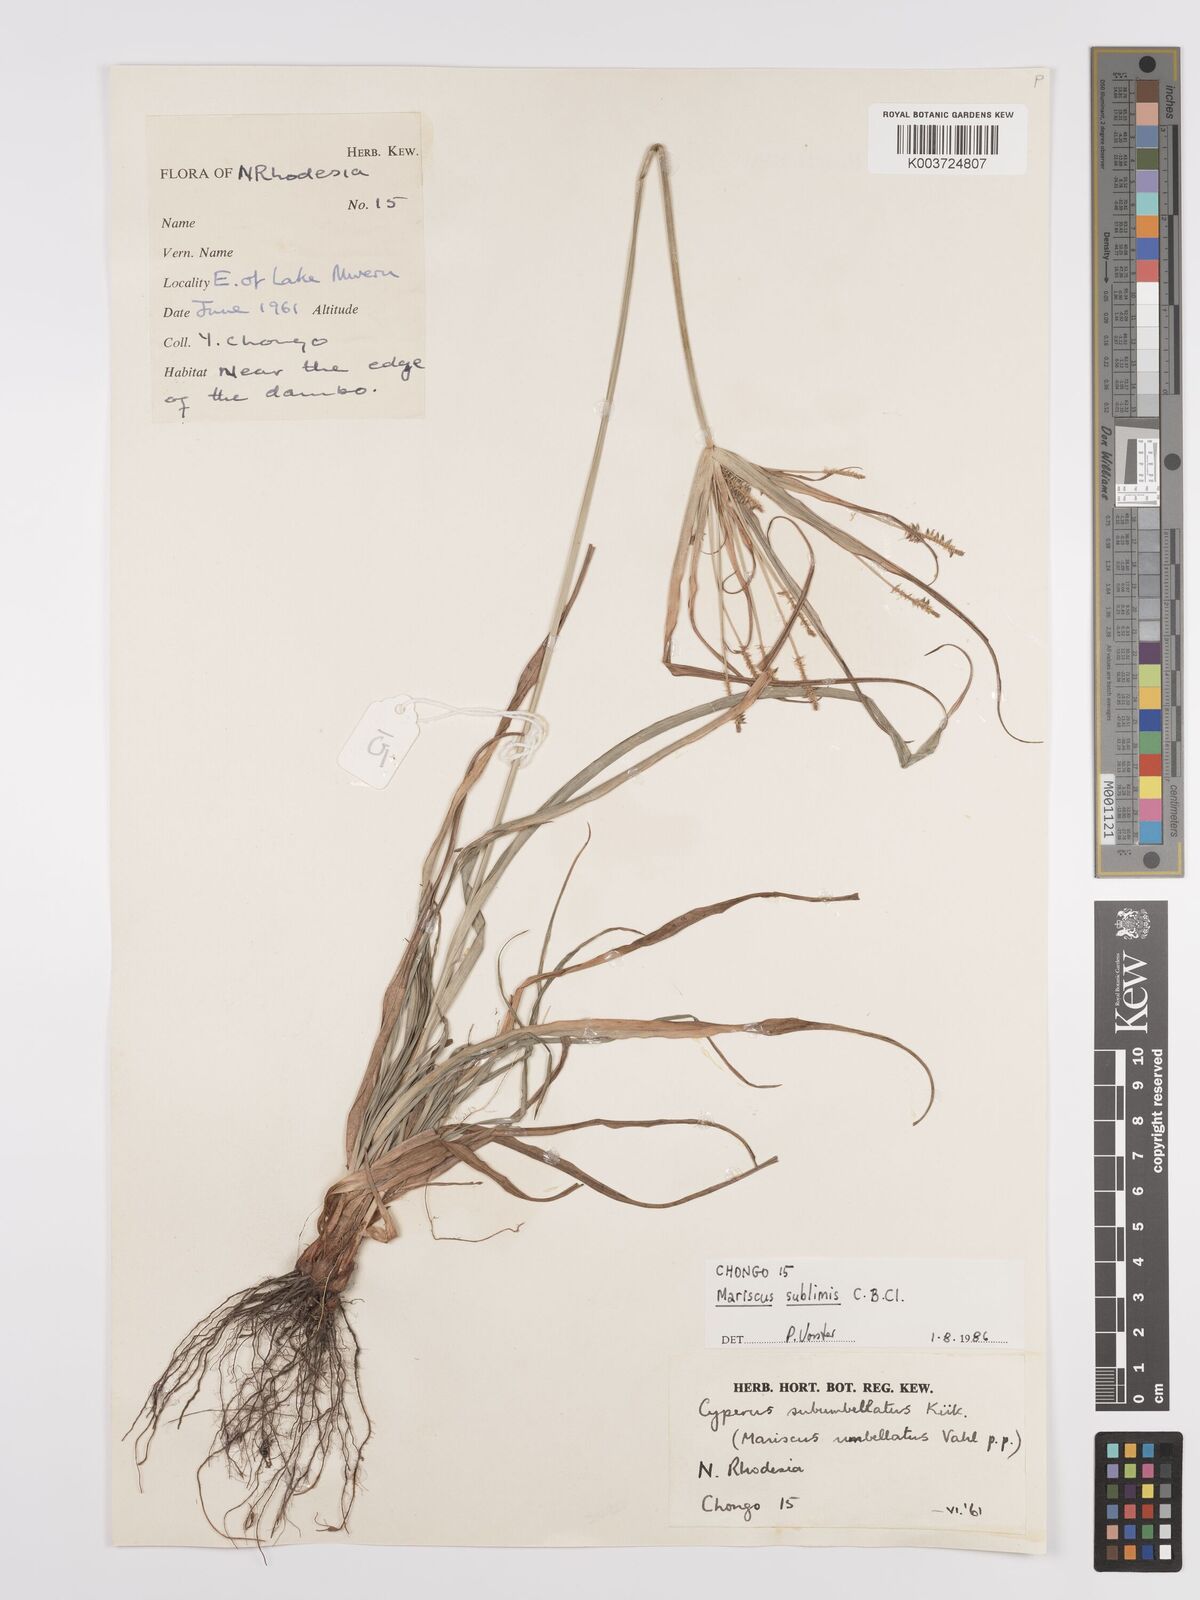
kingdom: Plantae
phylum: Tracheophyta
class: Liliopsida
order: Poales
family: Cyperaceae
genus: Cyperus
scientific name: Cyperus cyperoides
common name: Pacific island flat sedge
